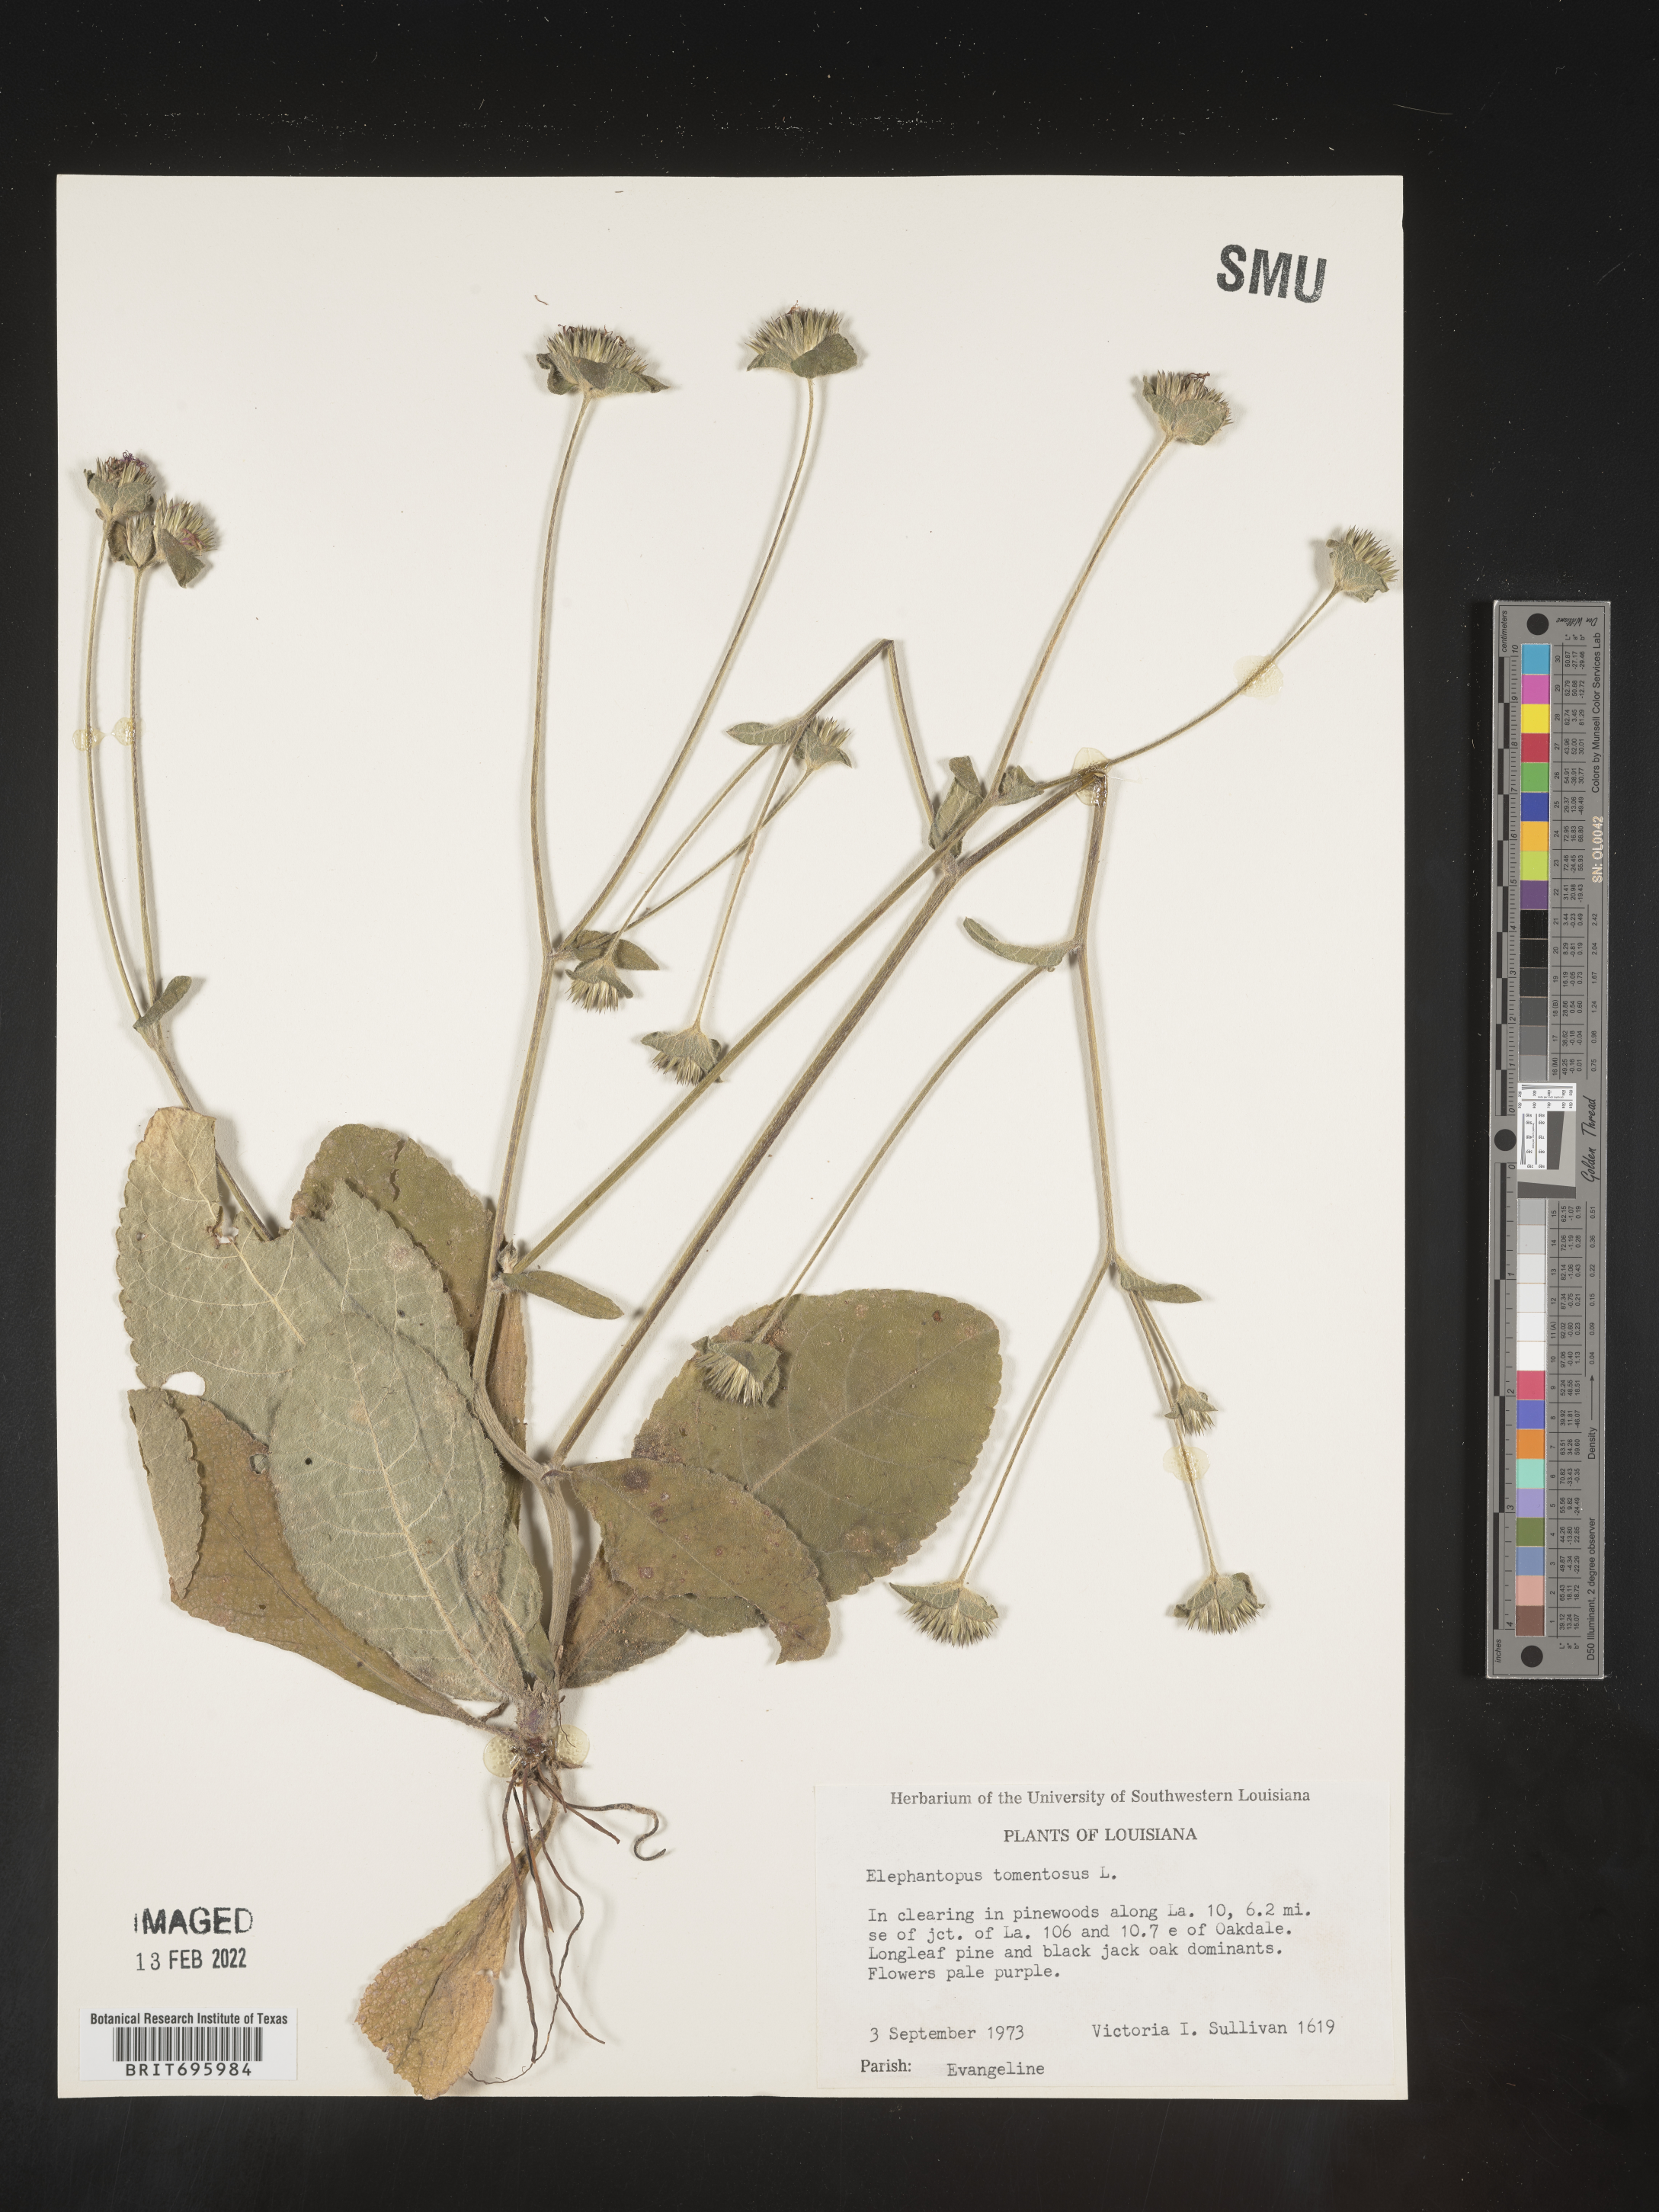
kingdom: Plantae
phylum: Tracheophyta
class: Magnoliopsida
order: Asterales
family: Asteraceae
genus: Elephantopus
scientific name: Elephantopus tomentosus
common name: Tobacco-weed
